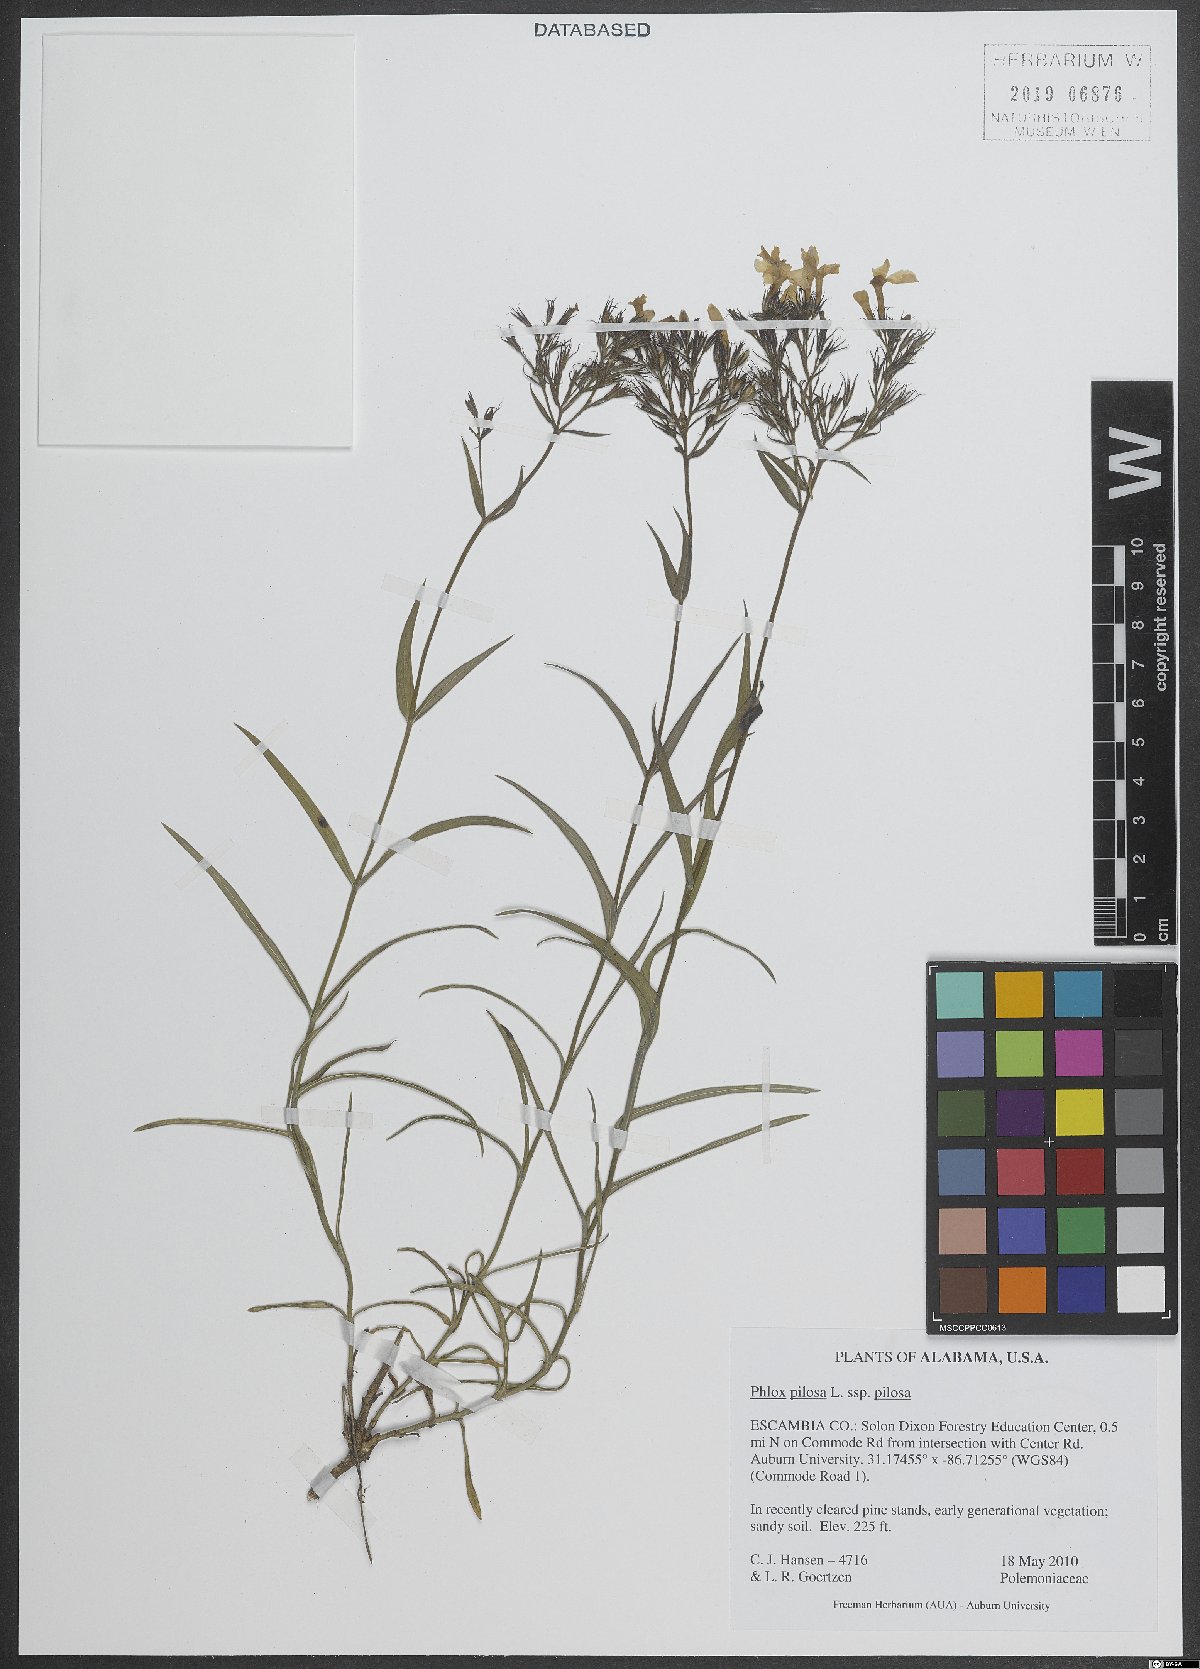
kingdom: Plantae
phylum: Tracheophyta
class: Magnoliopsida
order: Ericales
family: Polemoniaceae
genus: Phlox
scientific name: Phlox pilosa
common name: Prairie phlox
